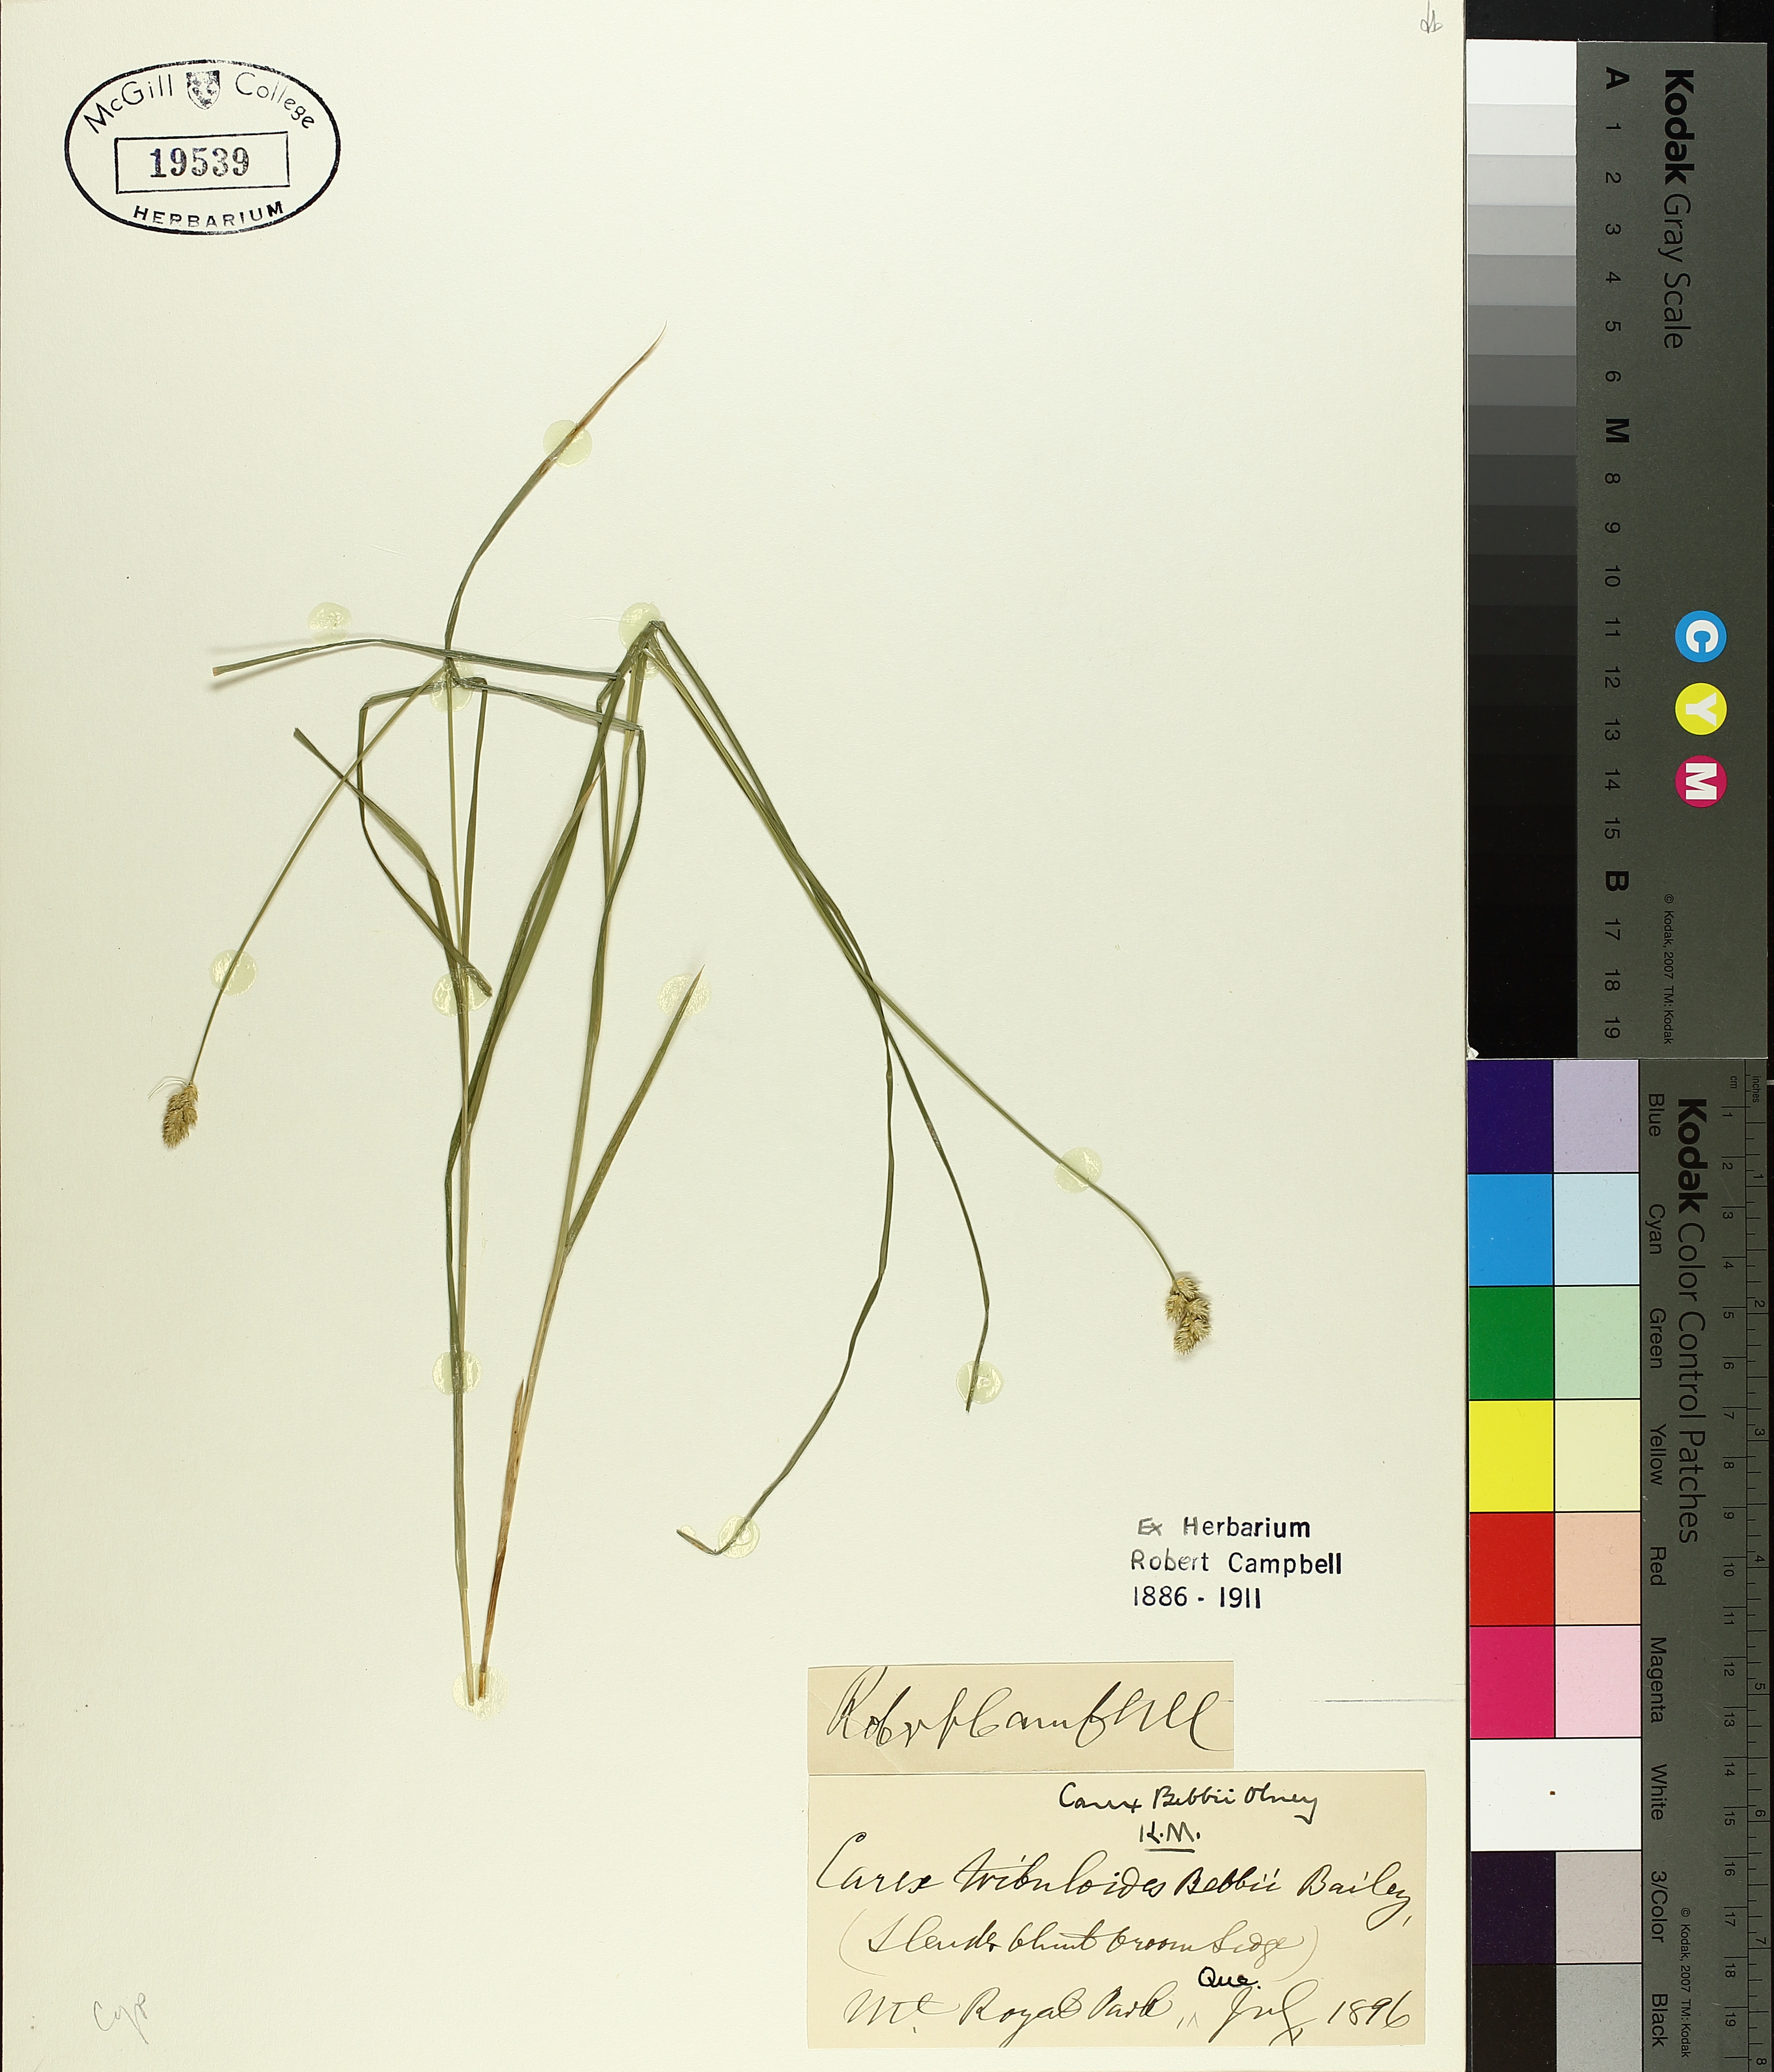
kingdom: Plantae
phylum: Tracheophyta
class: Liliopsida
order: Poales
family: Cyperaceae
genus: Carex
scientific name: Carex bebbii
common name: Bebb's sedge
